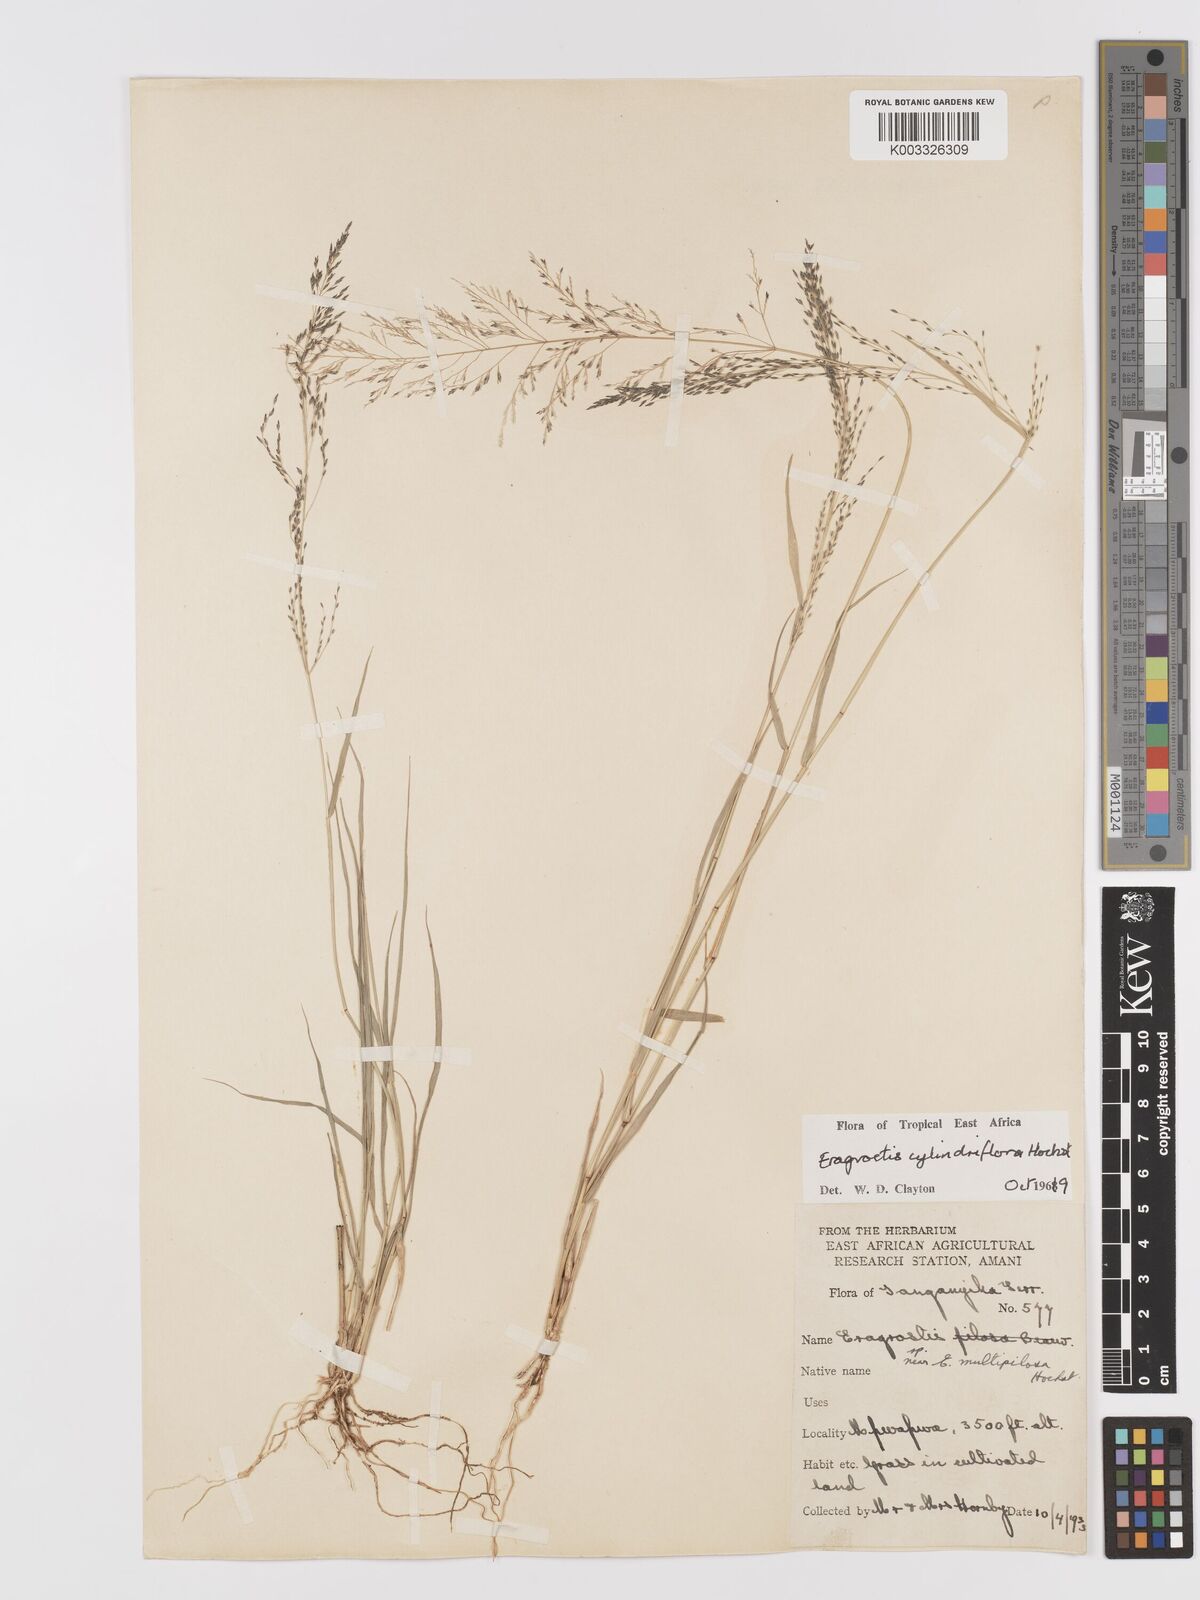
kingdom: Plantae
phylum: Tracheophyta
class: Liliopsida
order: Poales
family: Poaceae
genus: Eragrostis
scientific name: Eragrostis cylindriflora
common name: Cylinderflower lovegrass
